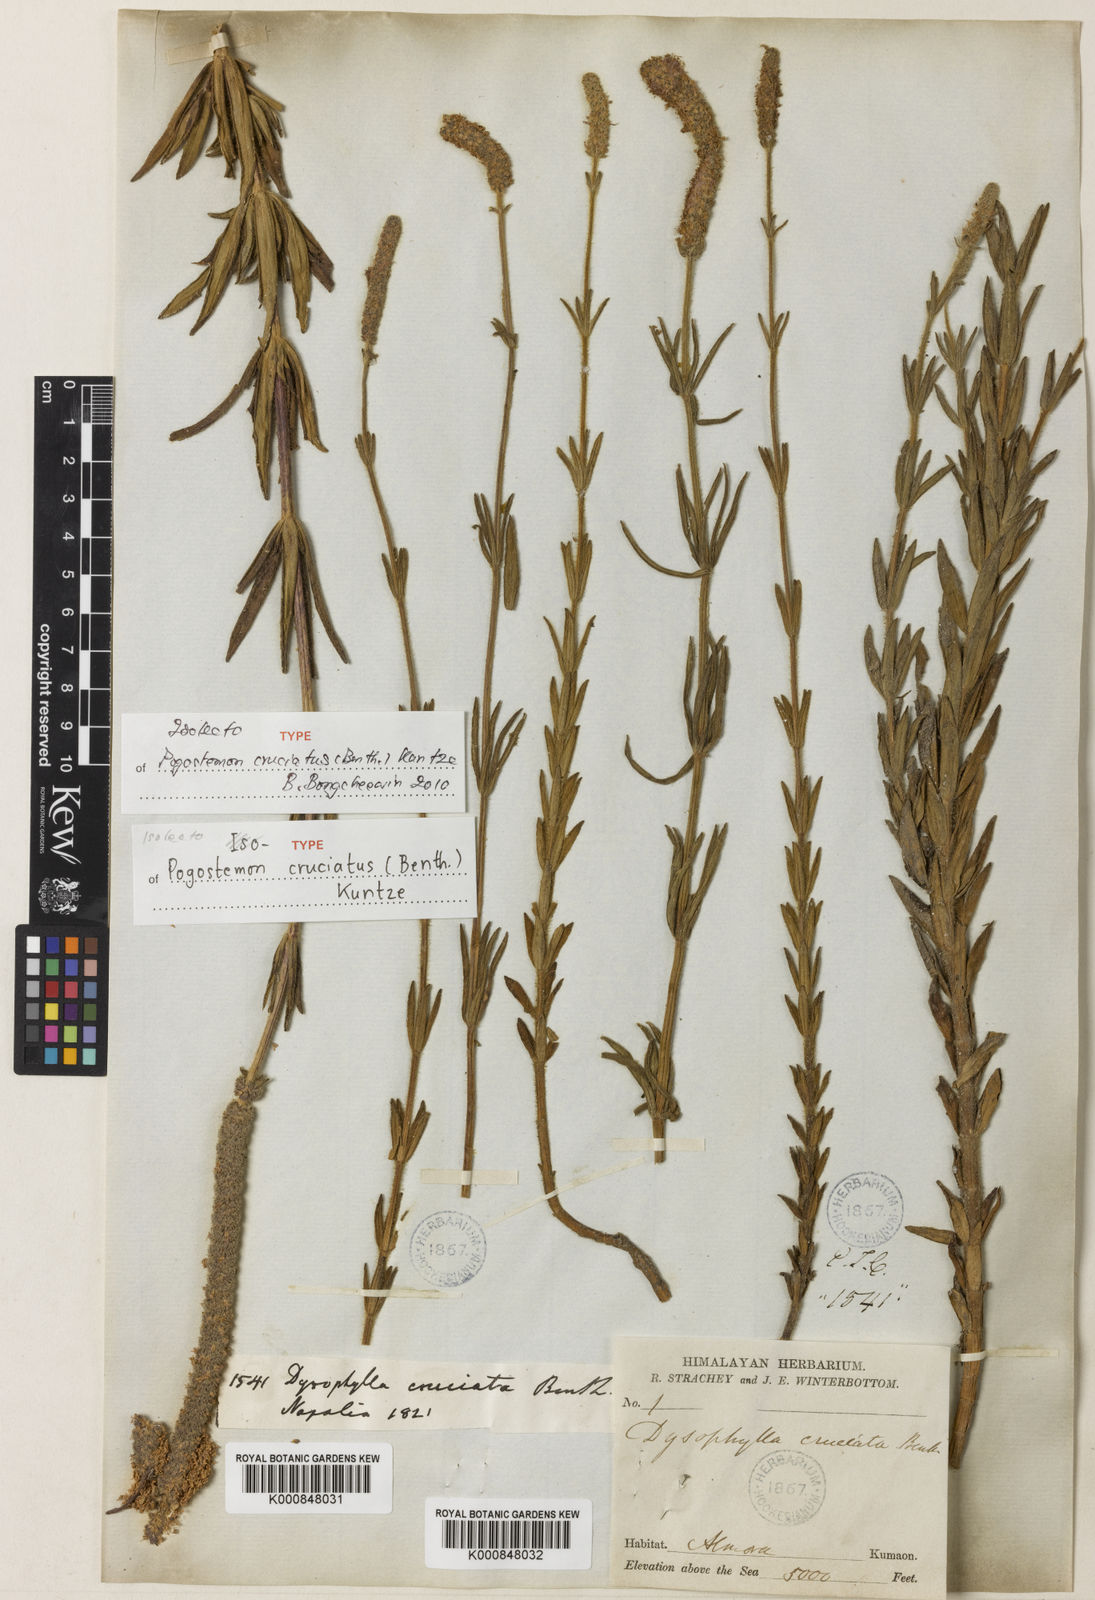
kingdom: Plantae
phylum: Tracheophyta
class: Magnoliopsida
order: Lamiales
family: Lamiaceae
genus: Pogostemon
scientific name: Pogostemon cruciatus
